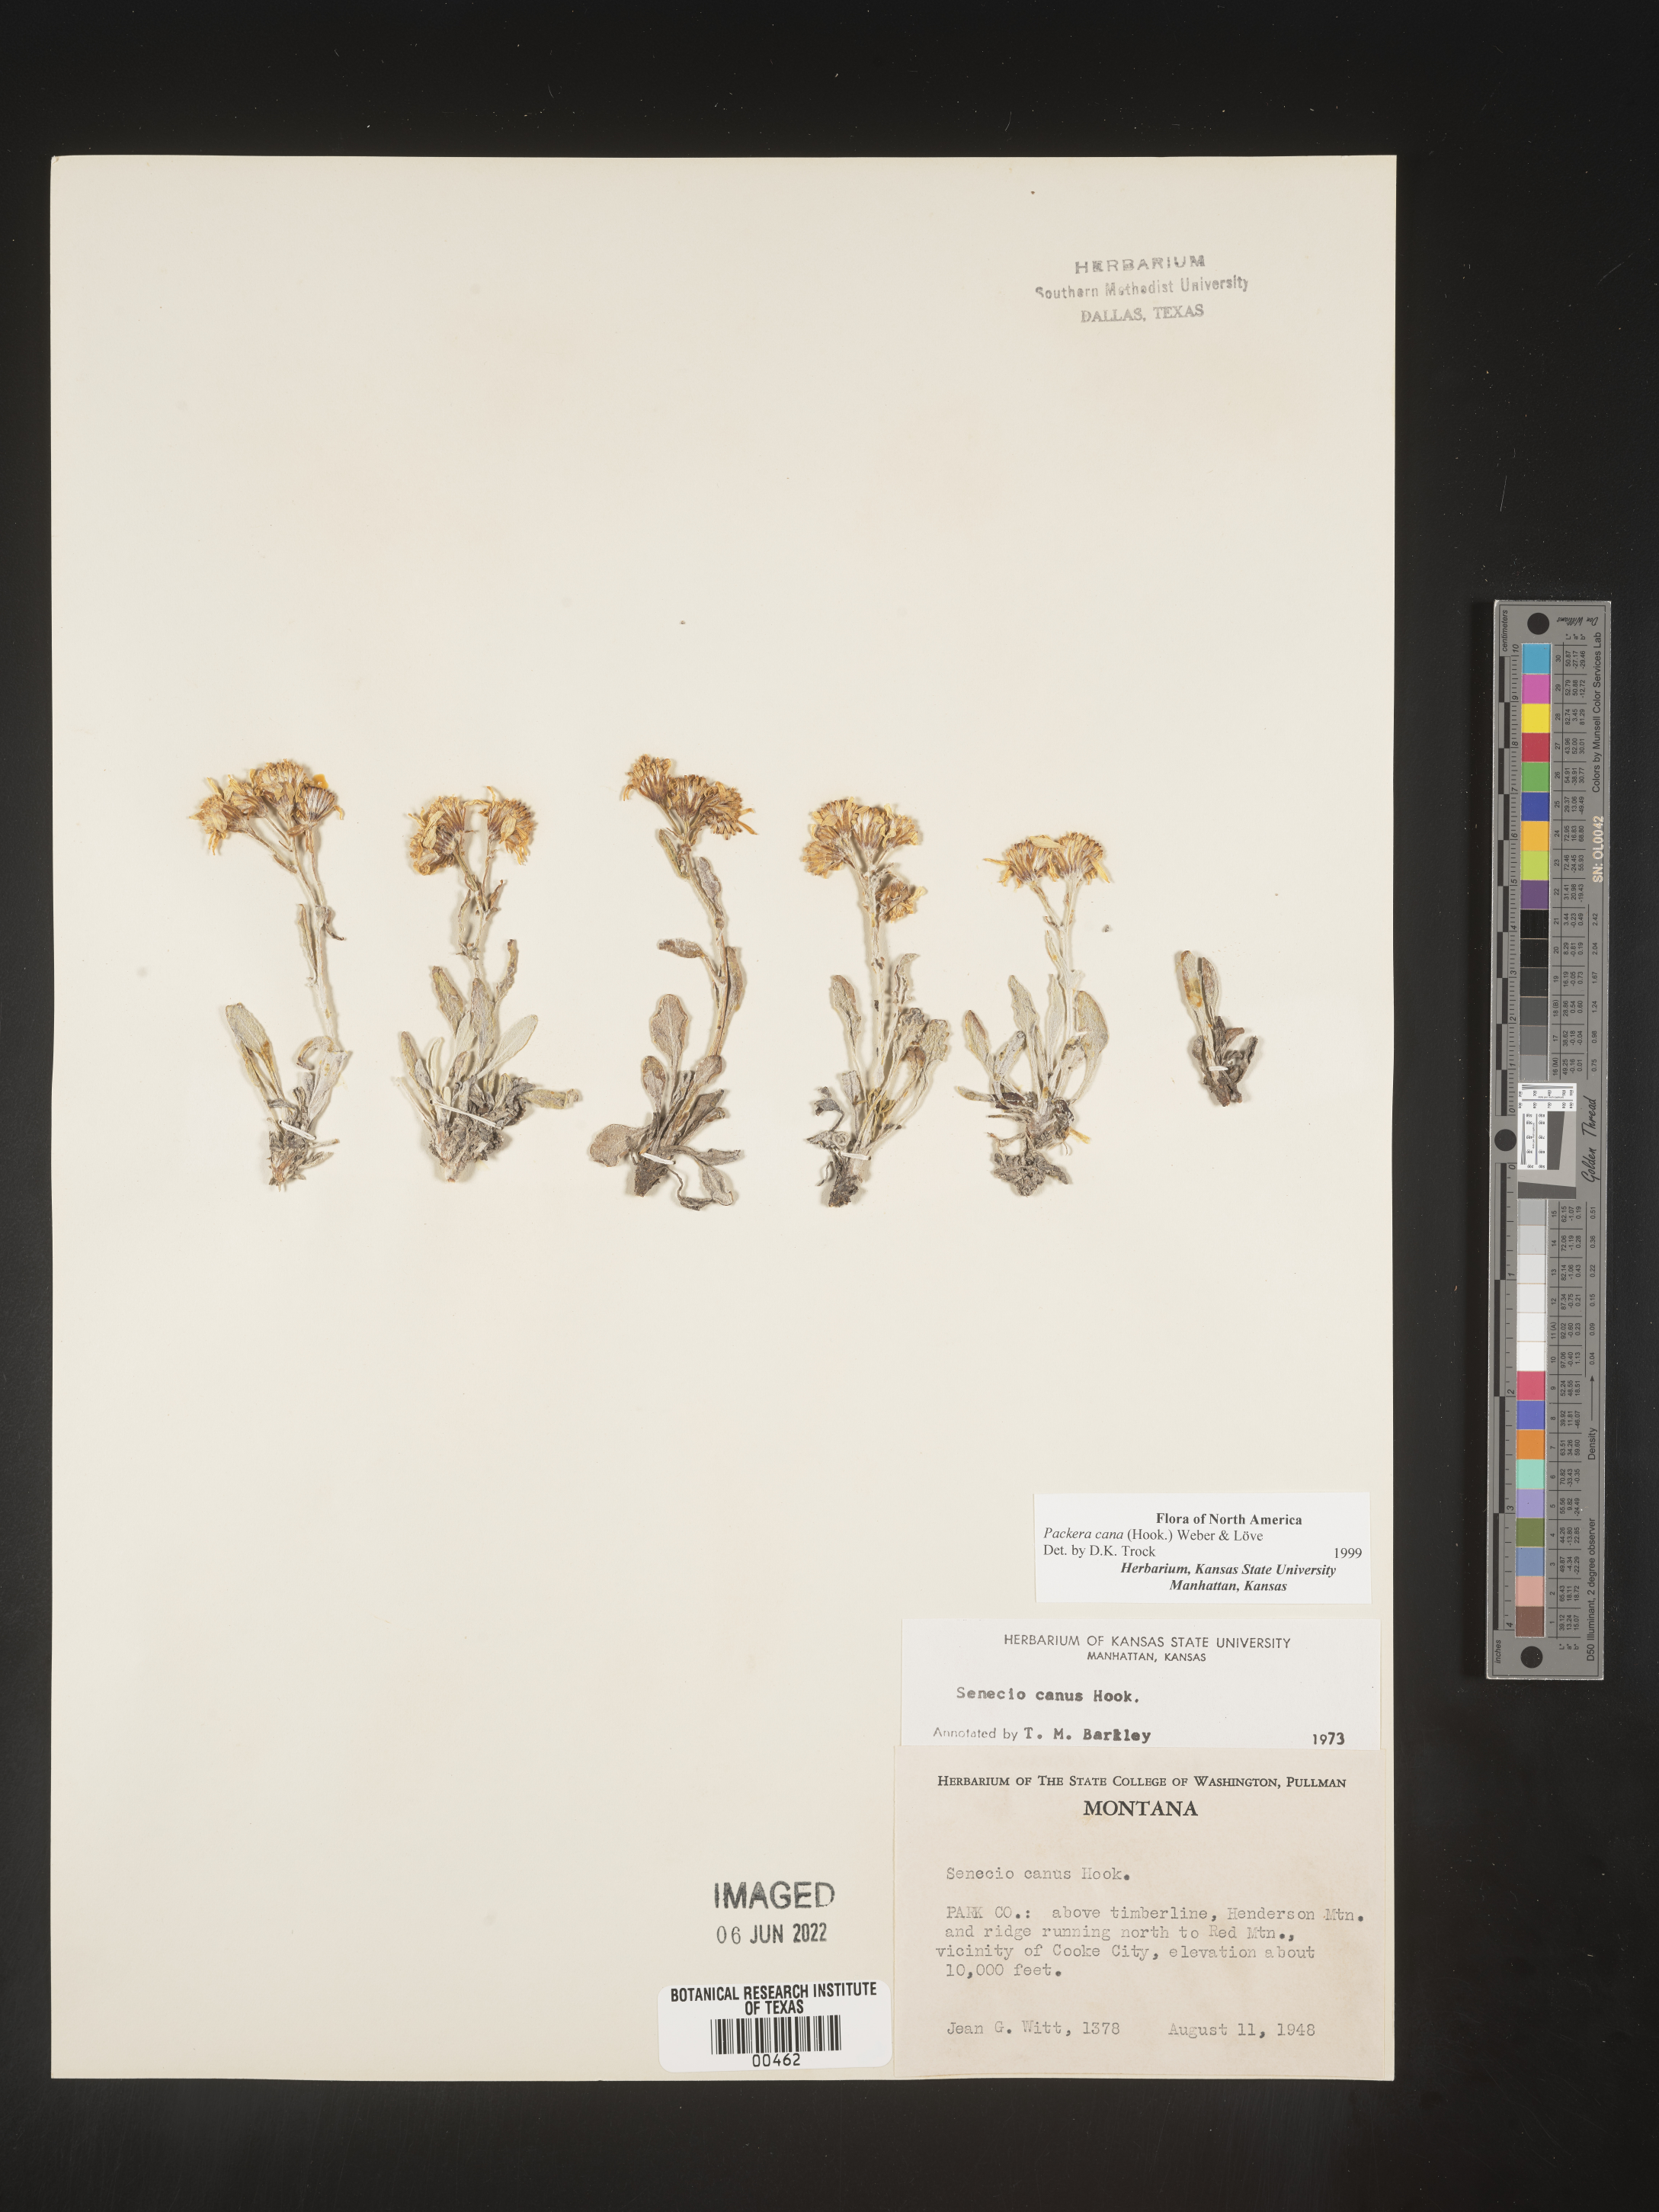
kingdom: Plantae
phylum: Tracheophyta
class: Magnoliopsida
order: Asterales
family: Asteraceae
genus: Packera
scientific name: Packera cana
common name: Woolly groundsel
